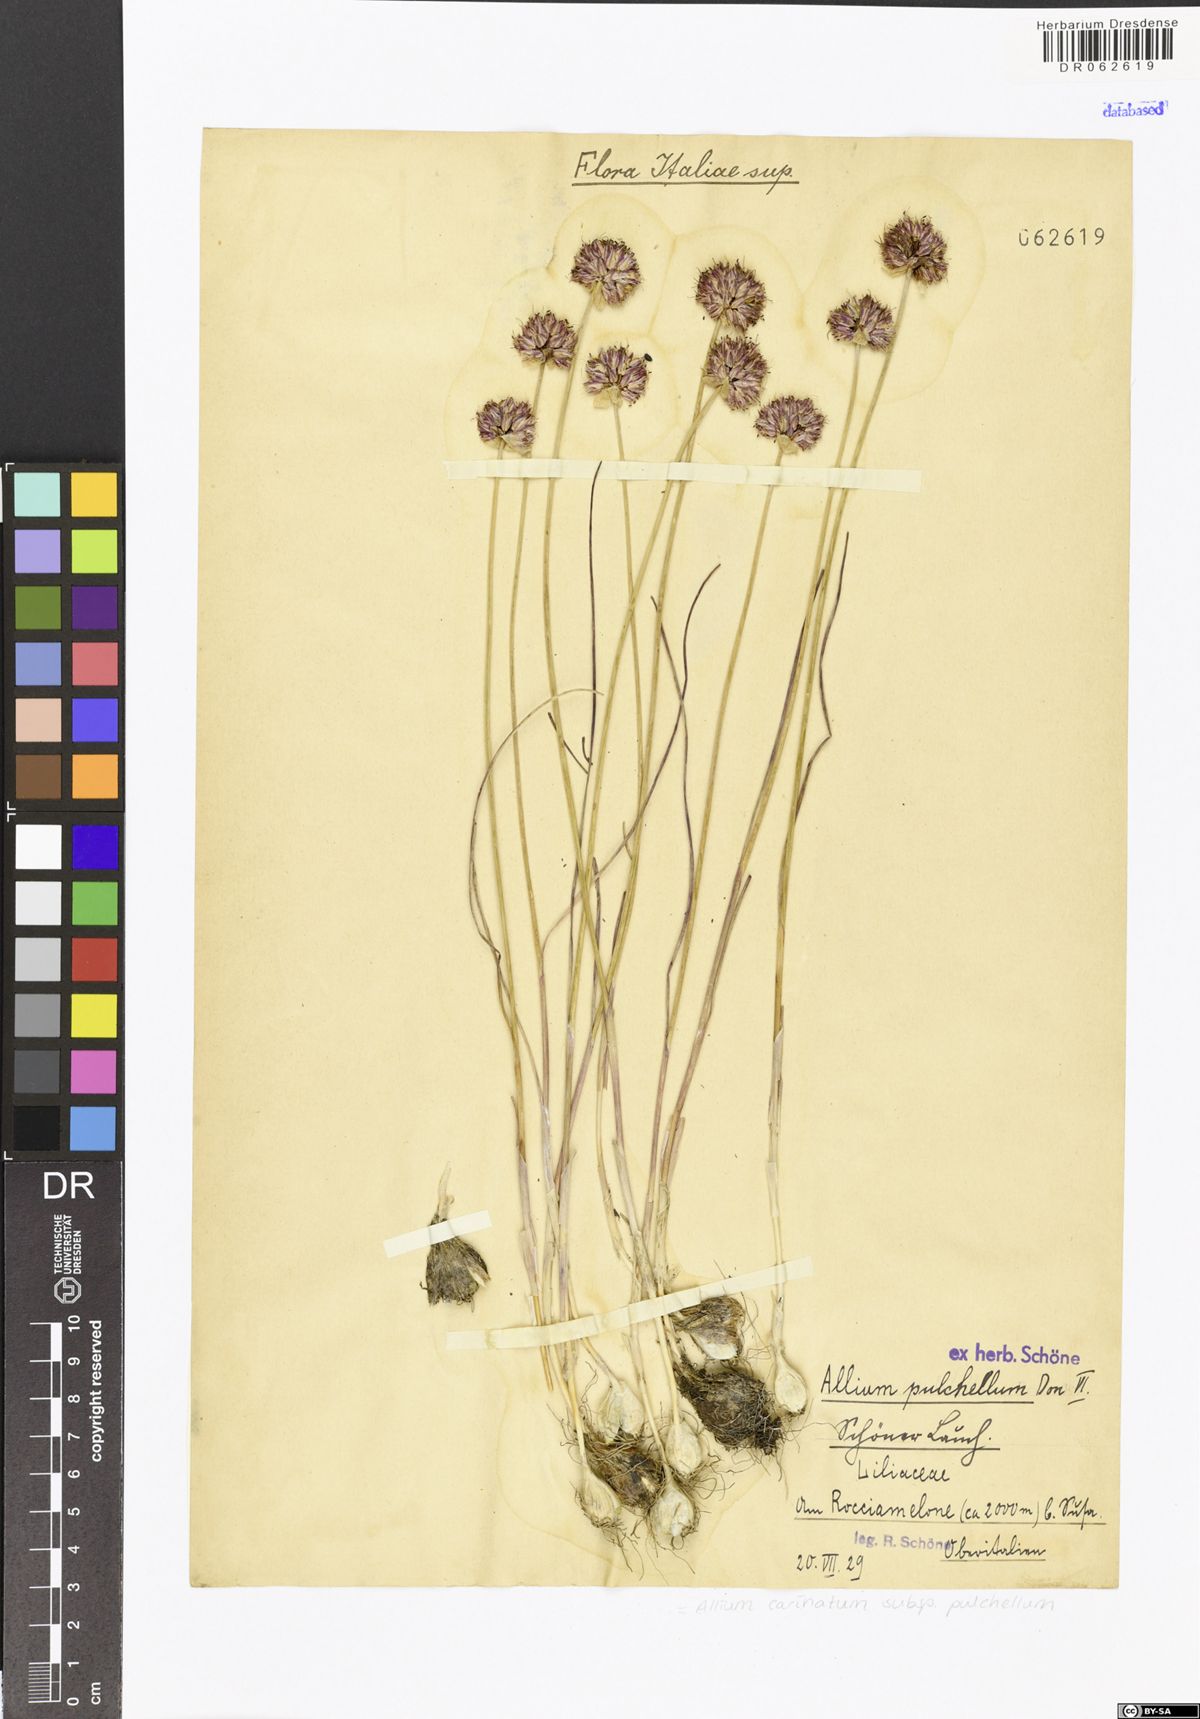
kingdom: Plantae
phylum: Tracheophyta
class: Liliopsida
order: Asparagales
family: Amaryllidaceae
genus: Allium
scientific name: Allium coloratum
